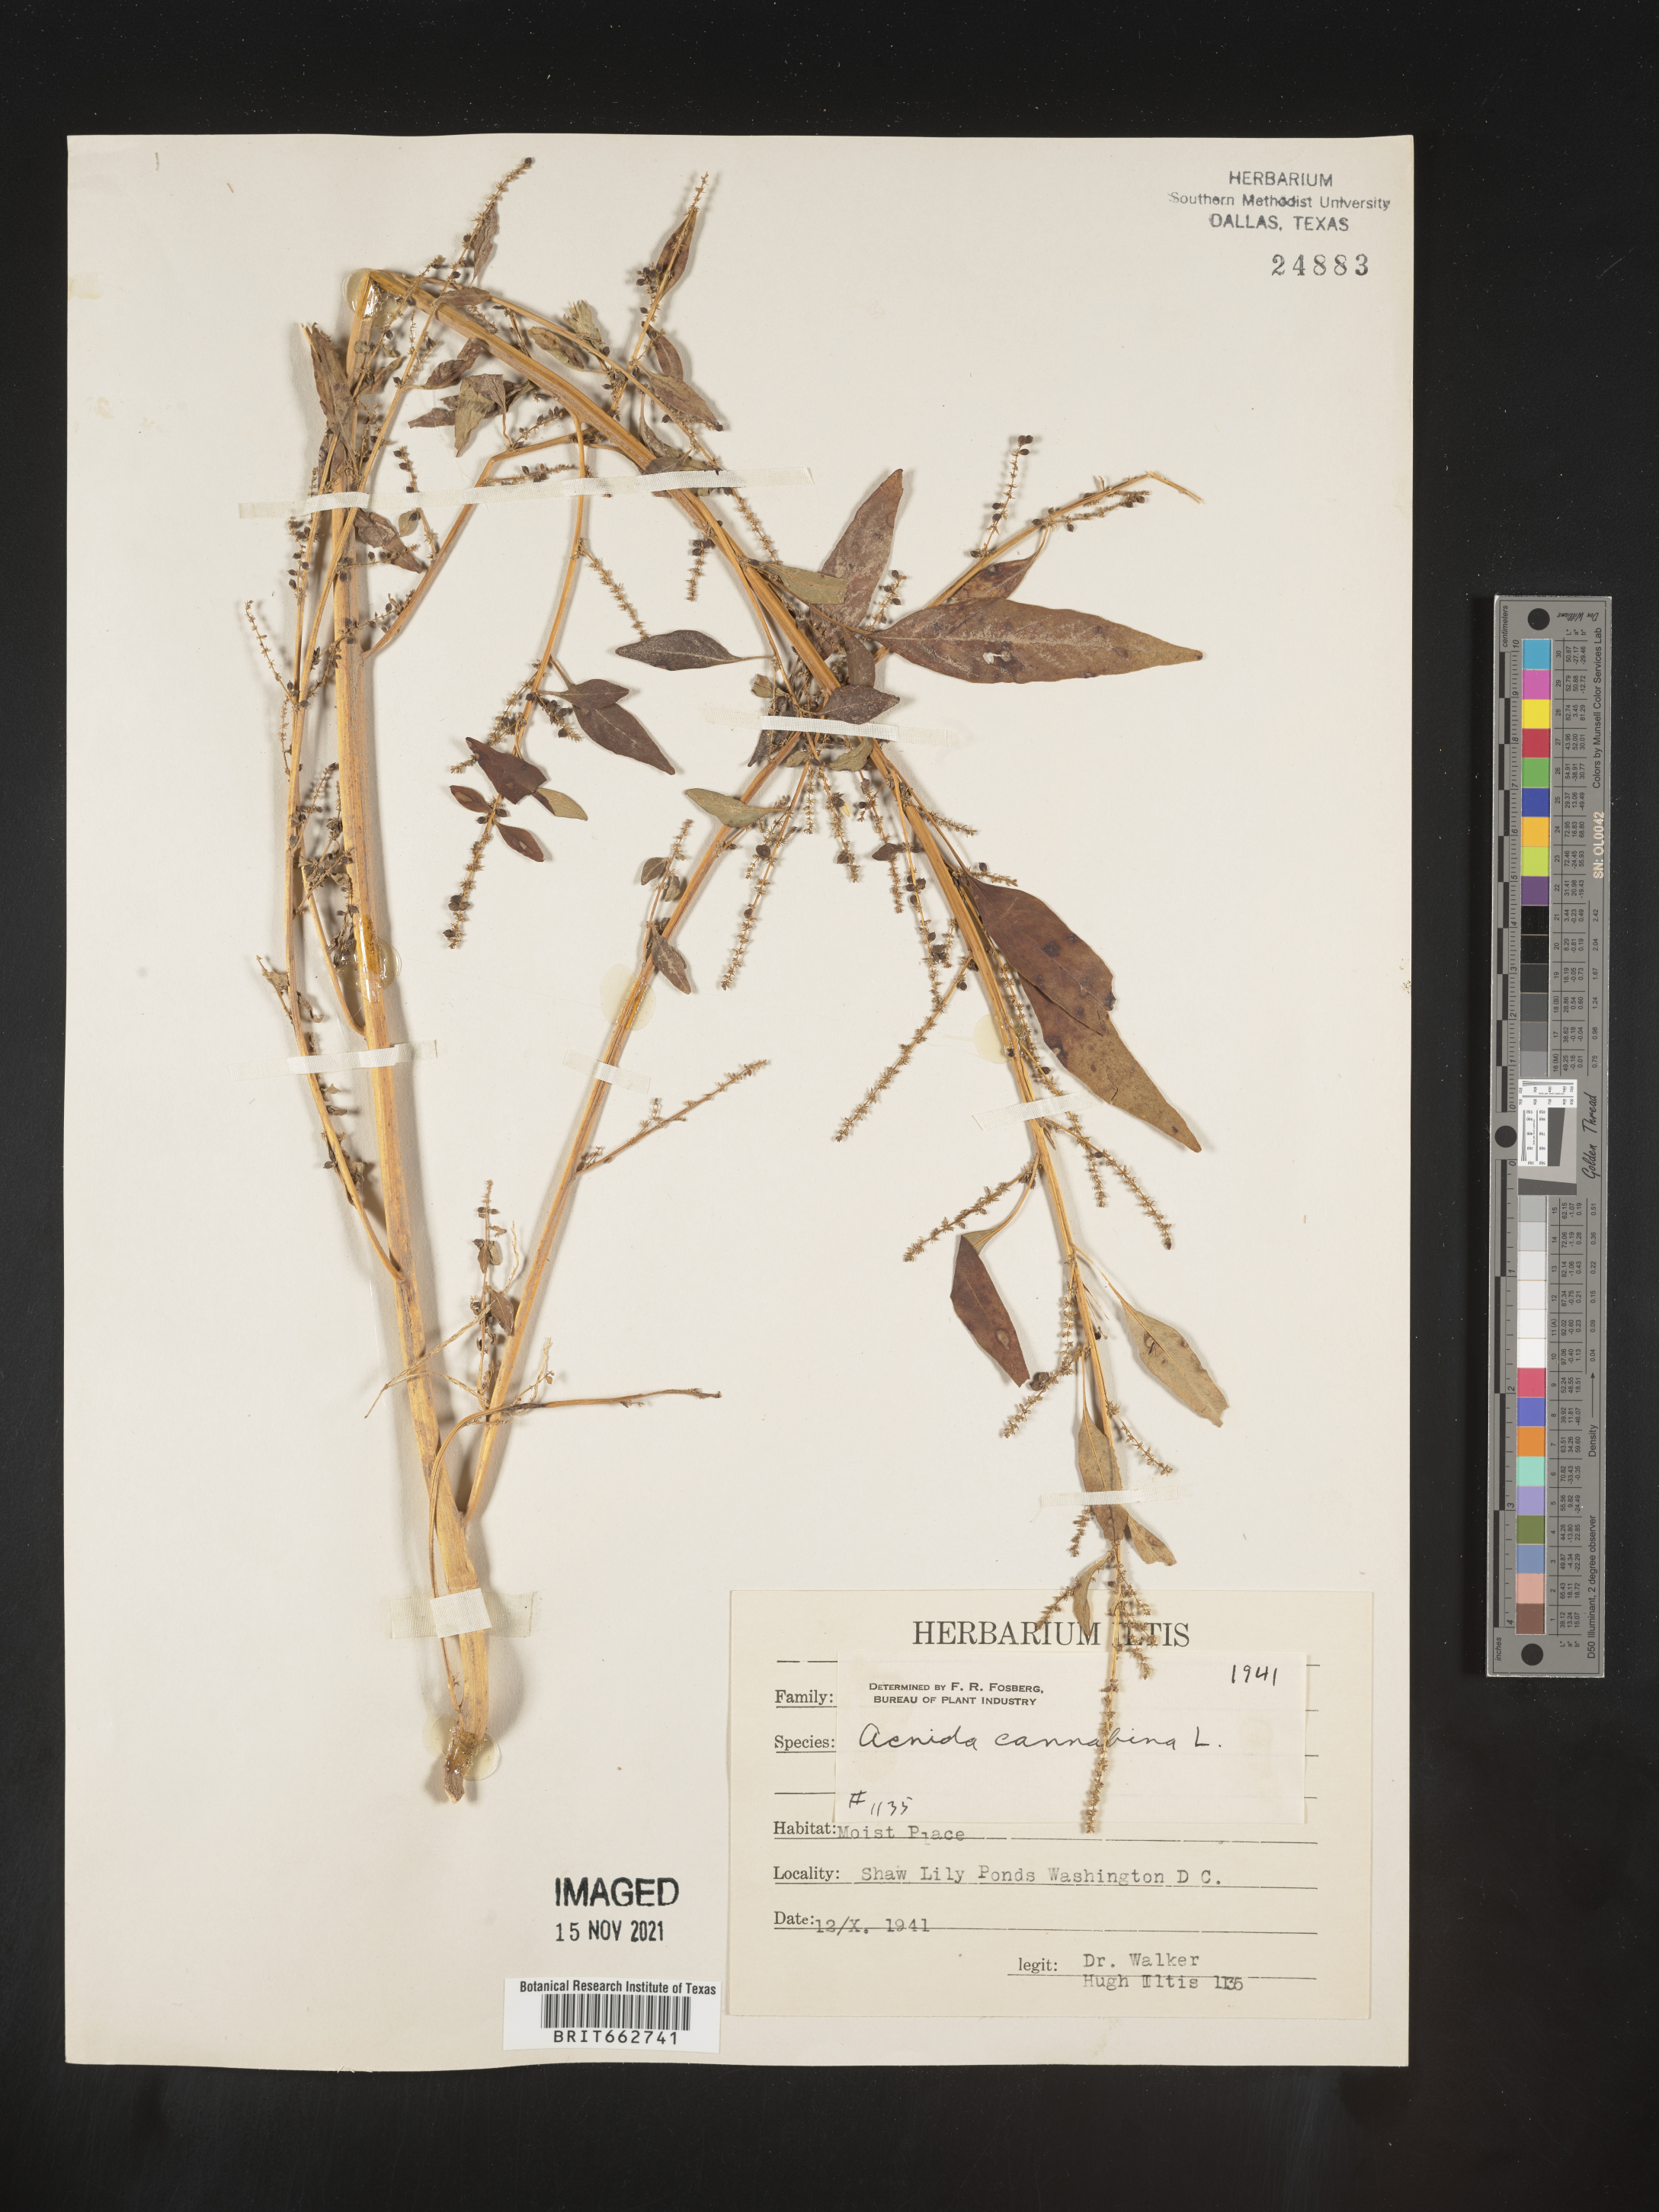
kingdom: Plantae
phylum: Tracheophyta
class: Magnoliopsida
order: Caryophyllales
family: Amaranthaceae
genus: Amaranthus
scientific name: Amaranthus powellii
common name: Powell's amaranth
